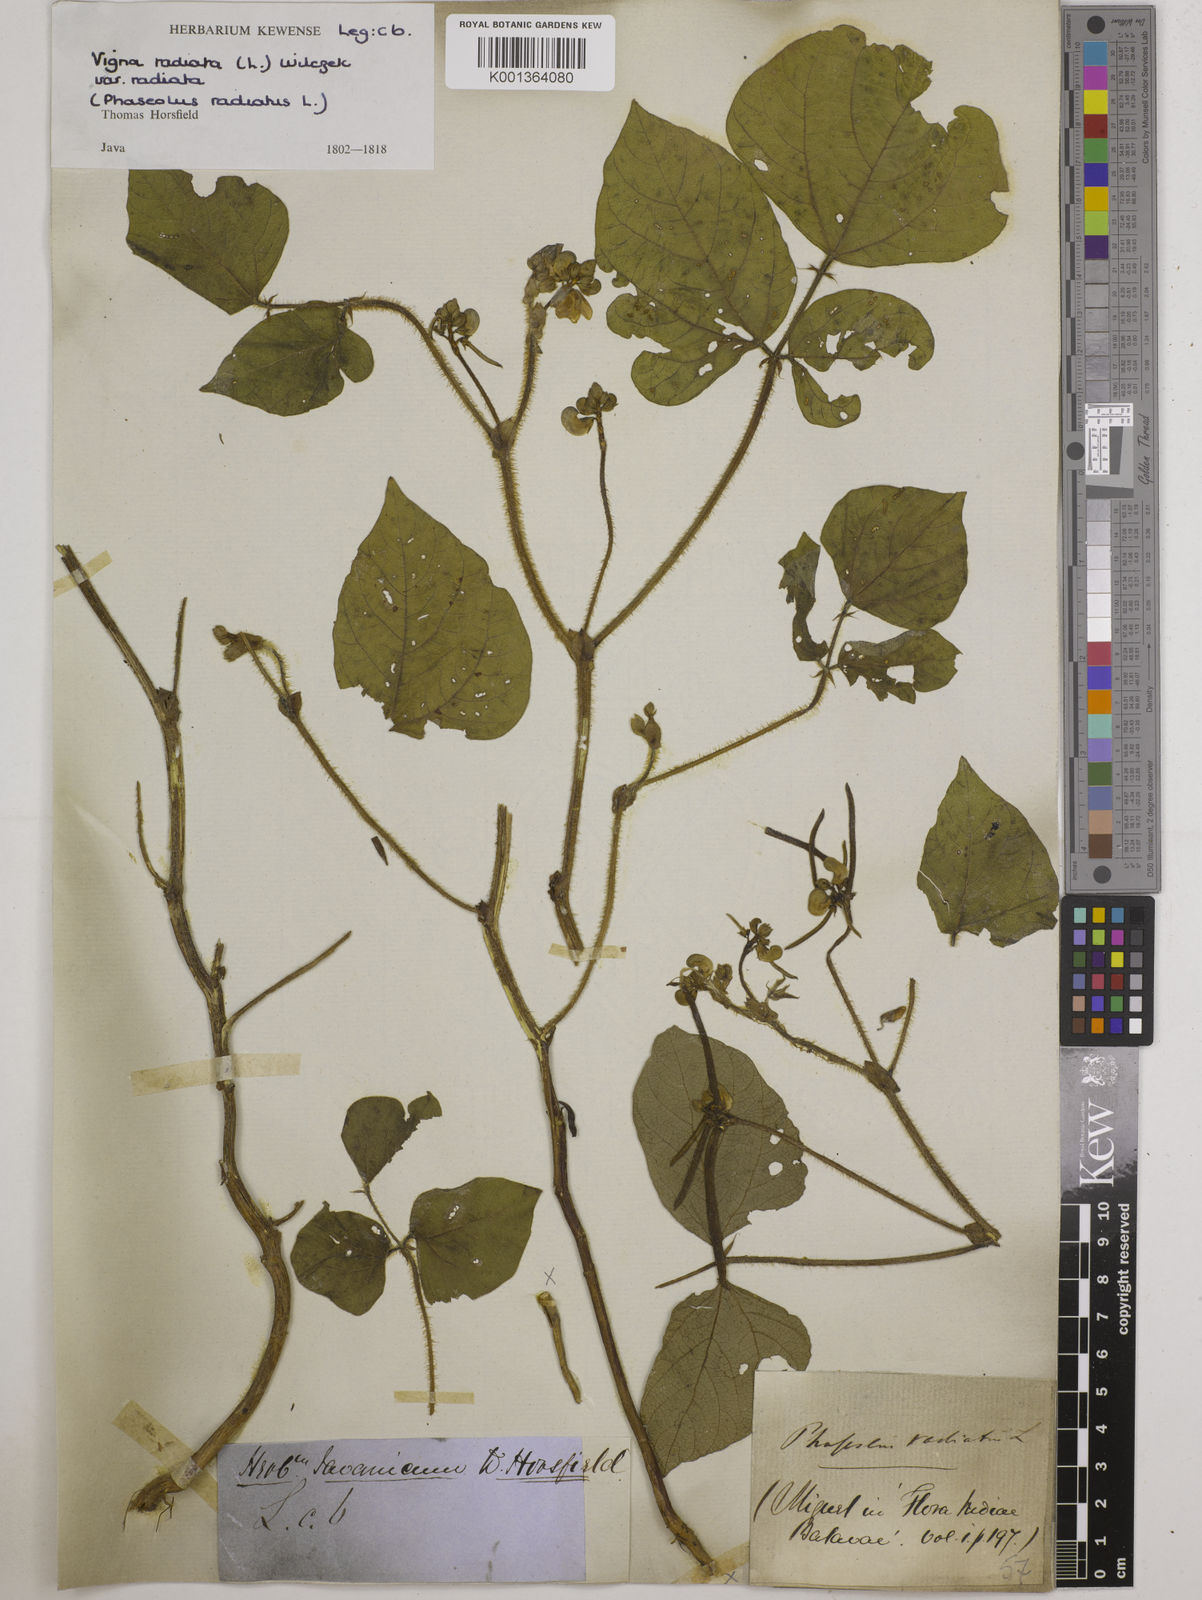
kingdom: Plantae
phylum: Tracheophyta
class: Magnoliopsida
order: Fabales
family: Fabaceae
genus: Vigna
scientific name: Vigna radiata
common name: Mung-bean
